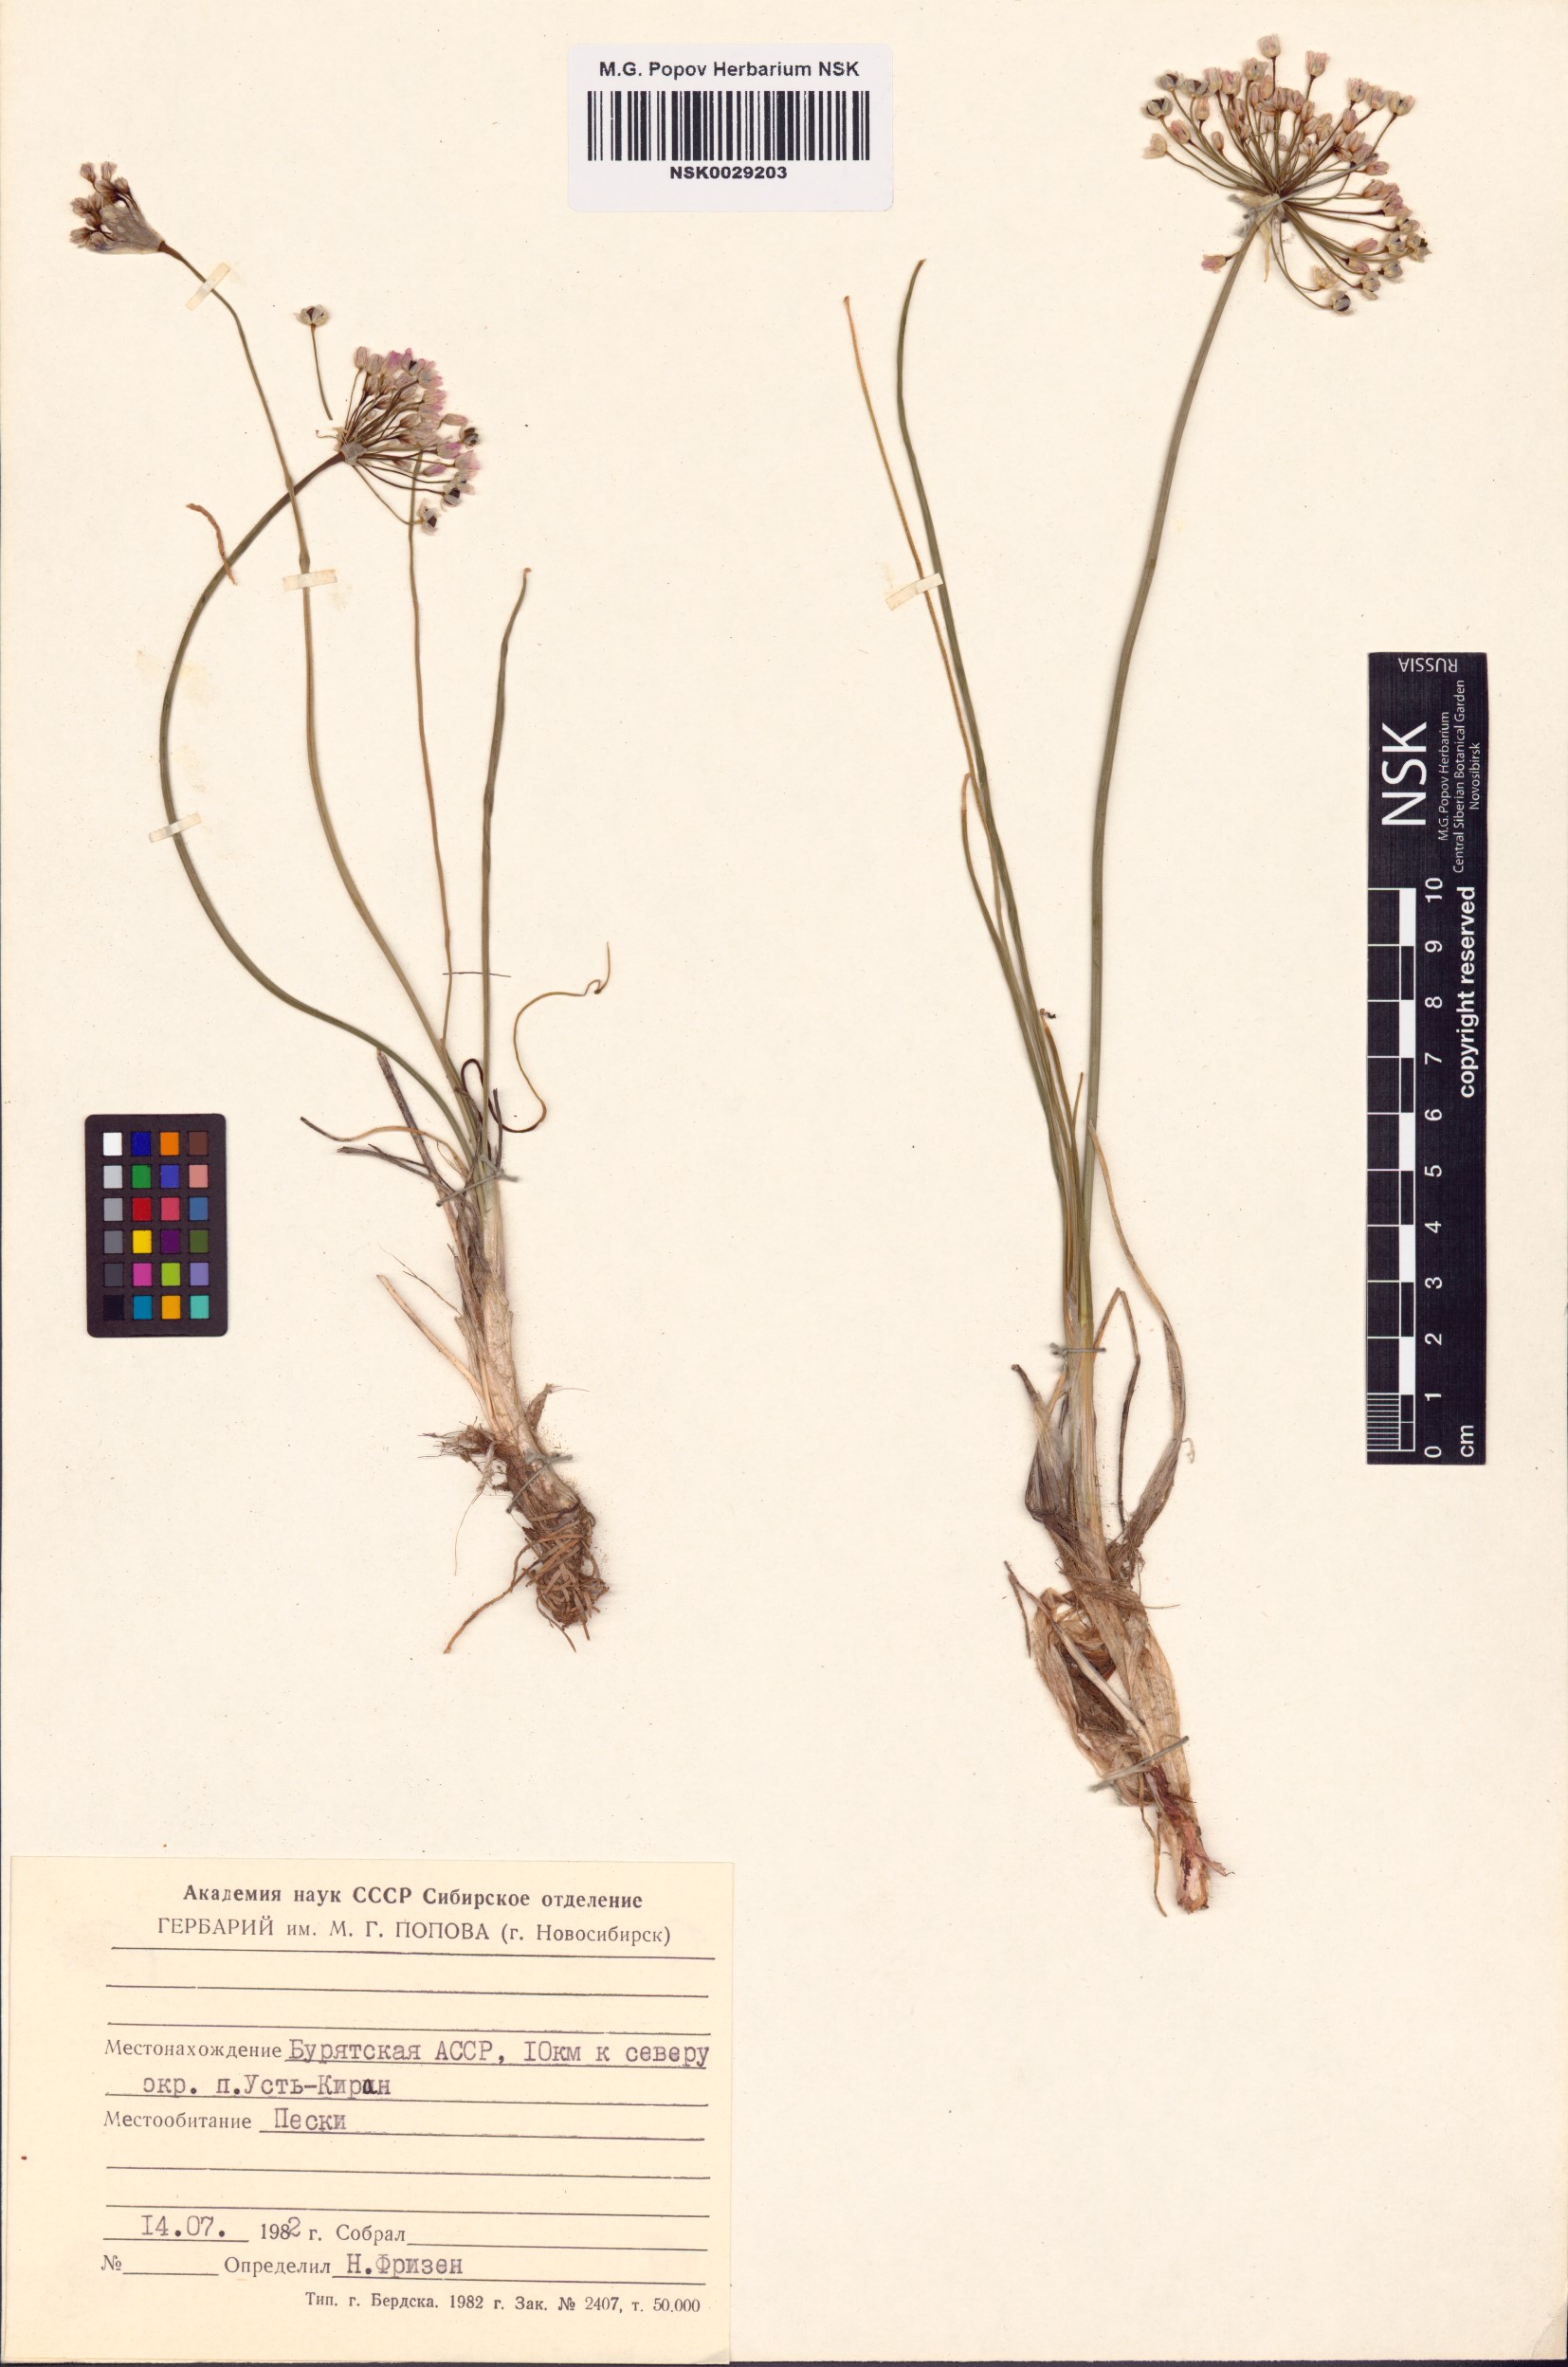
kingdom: Plantae
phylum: Tracheophyta
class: Liliopsida
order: Asparagales
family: Amaryllidaceae
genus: Allium
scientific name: Allium anisopodium
